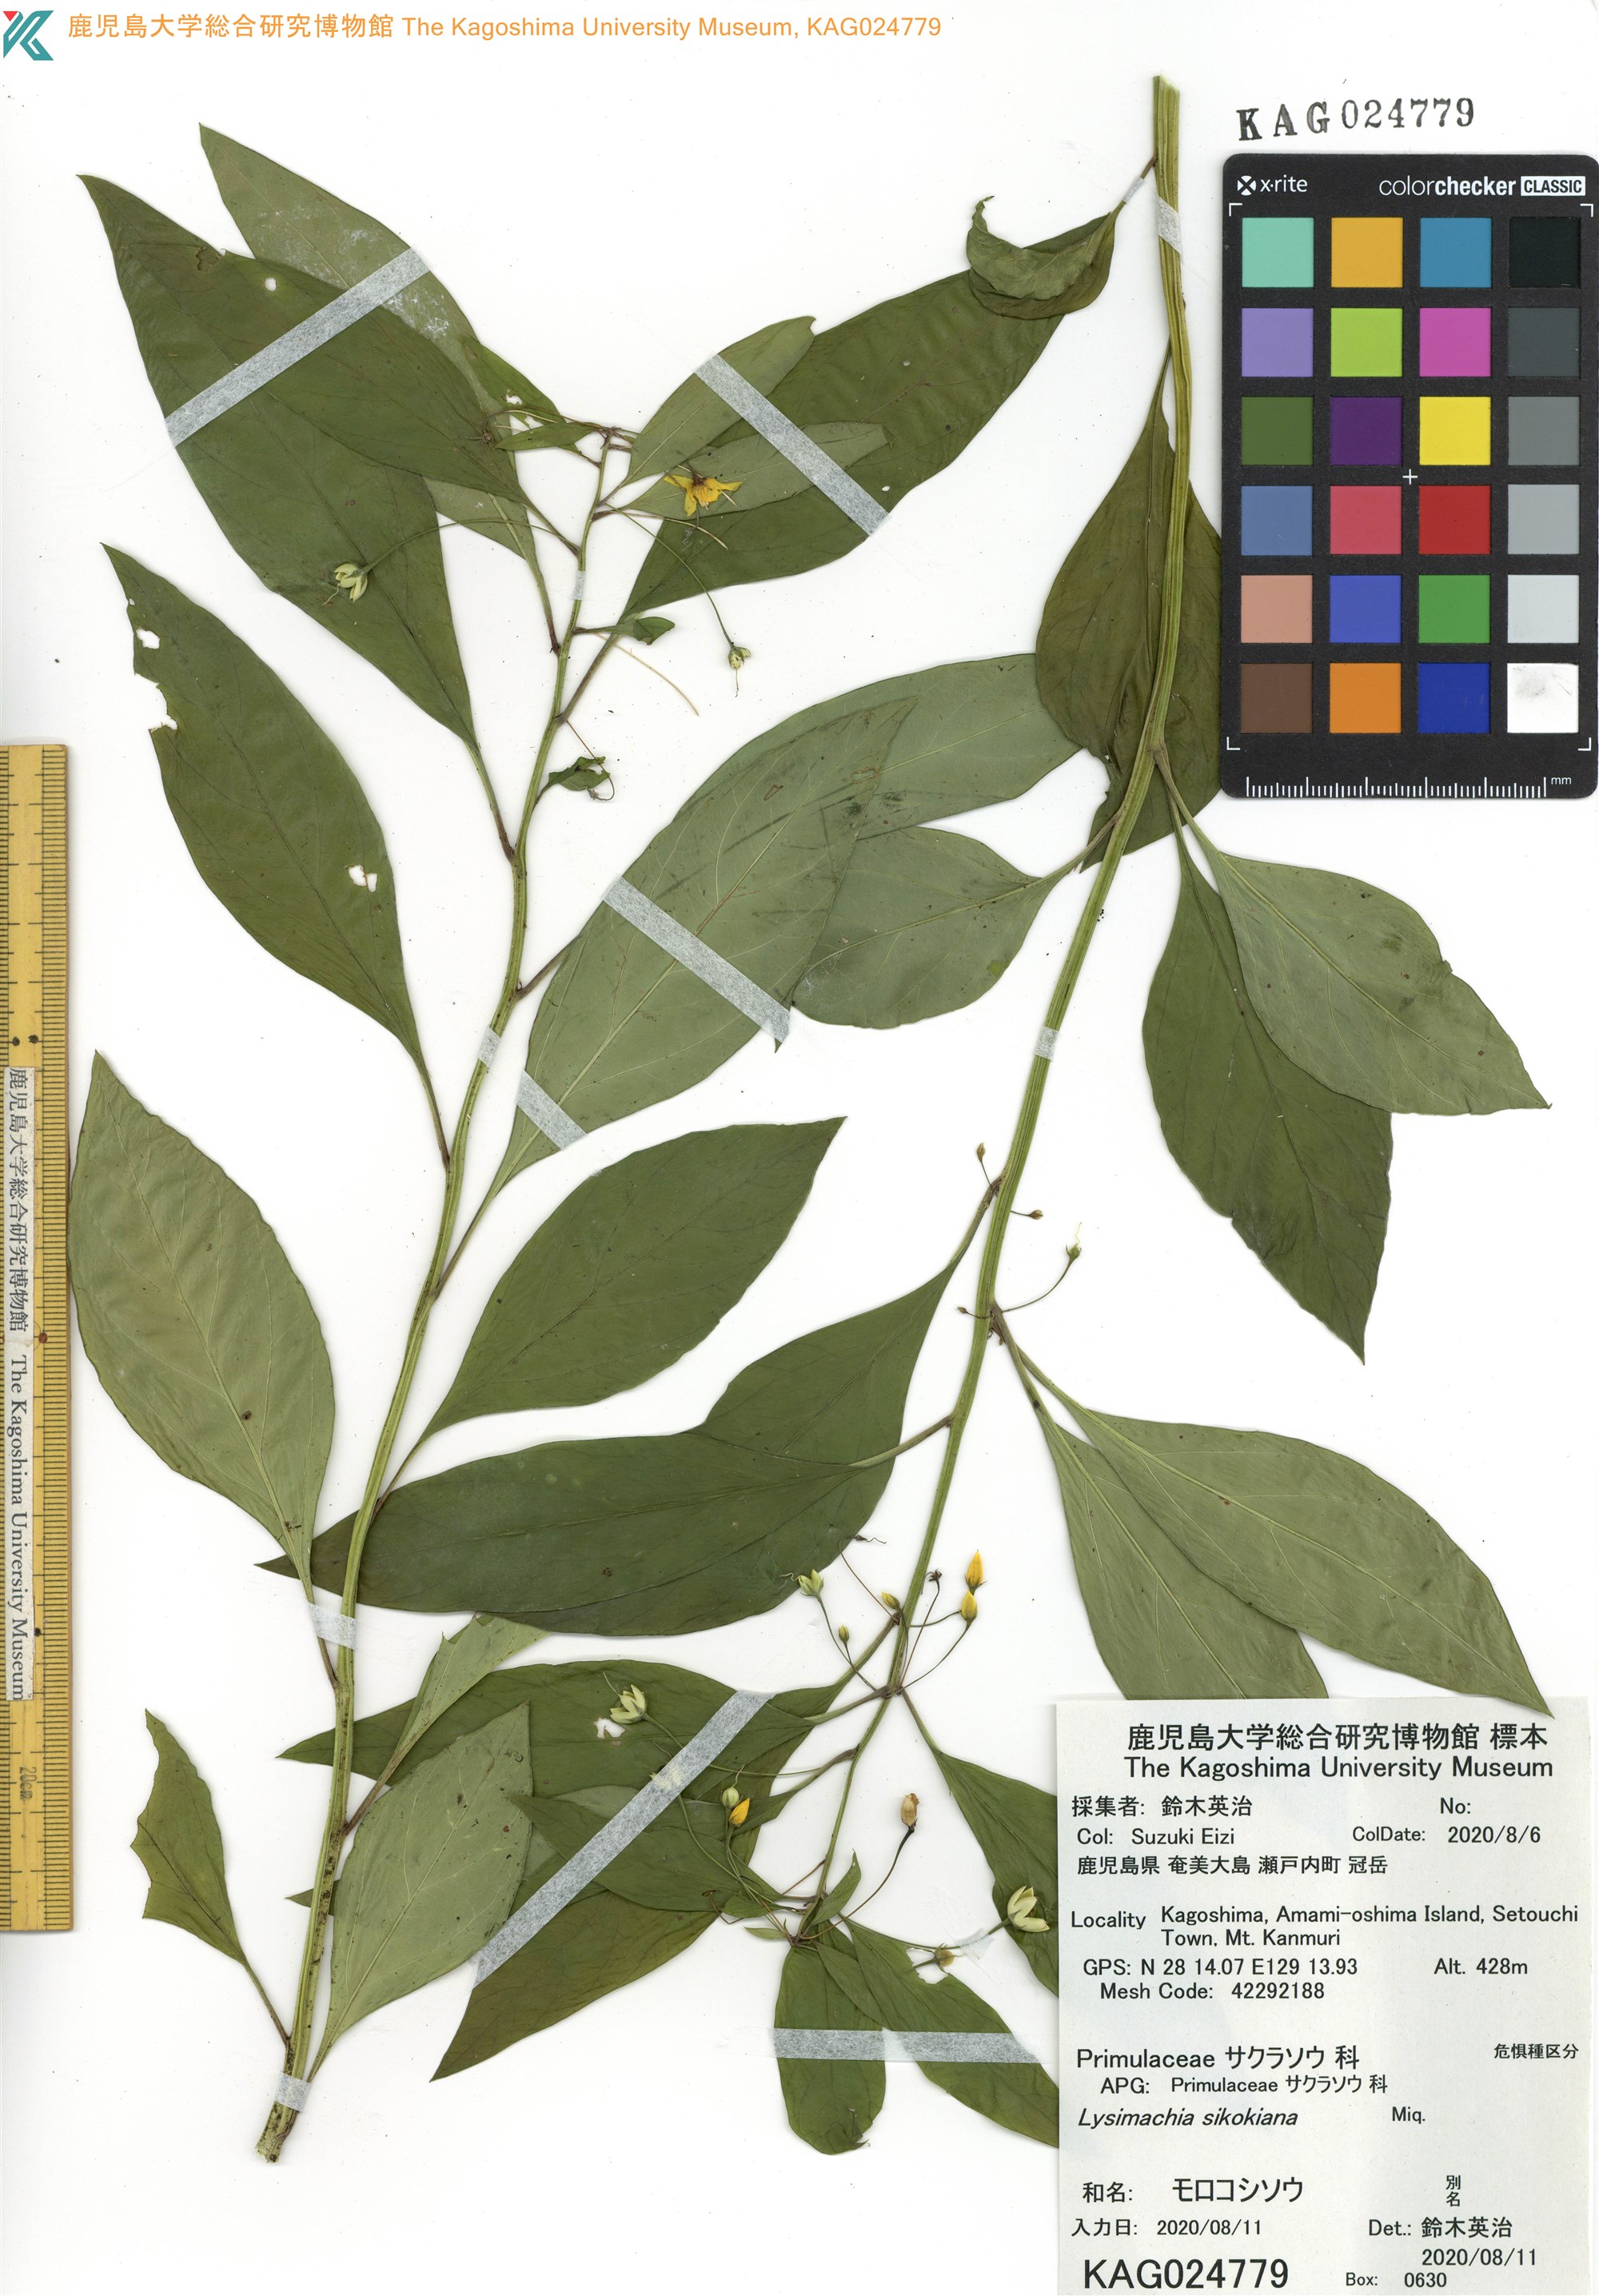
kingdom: Plantae
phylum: Tracheophyta
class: Magnoliopsida
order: Ericales
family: Primulaceae
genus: Lysimachia
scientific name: Lysimachia sikokiana
